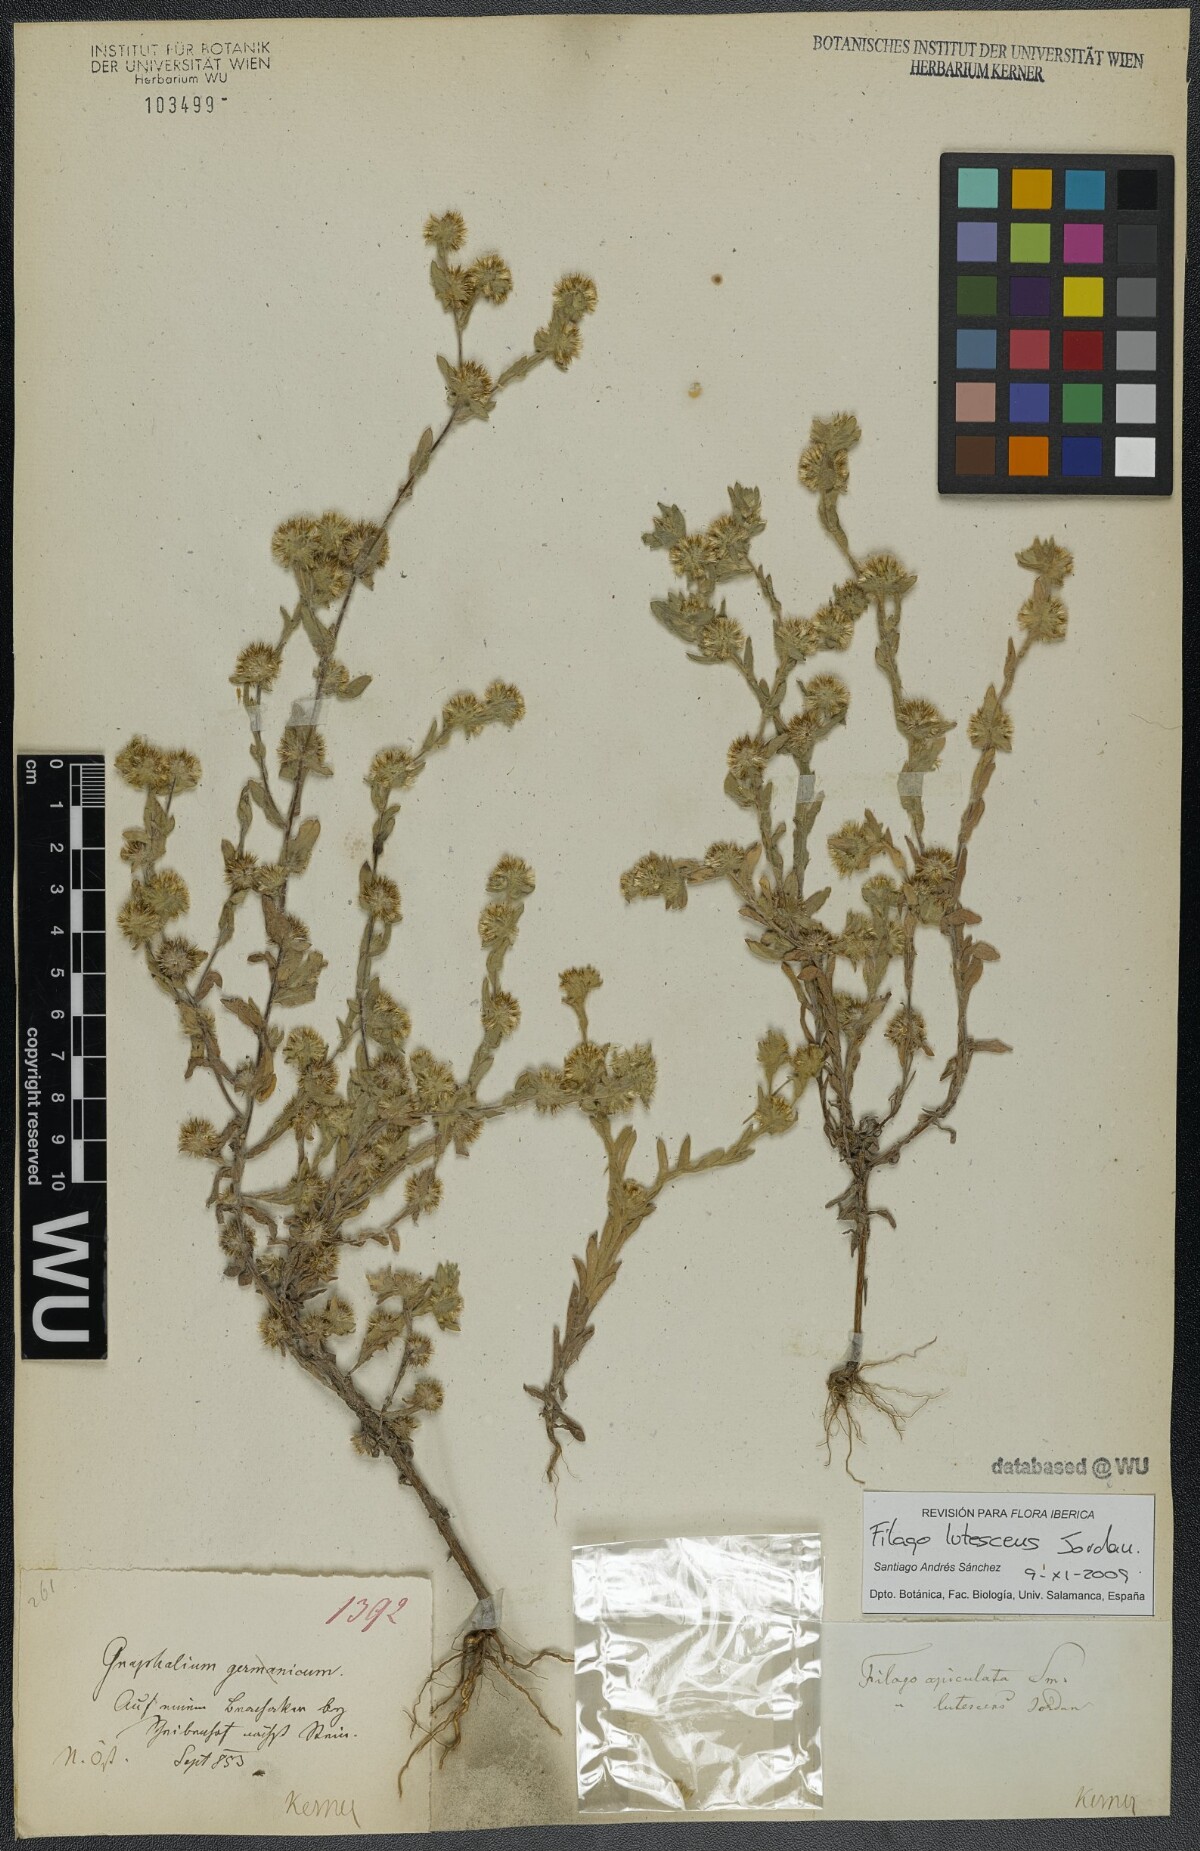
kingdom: Plantae
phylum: Tracheophyta
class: Magnoliopsida
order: Asterales
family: Asteraceae
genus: Filago
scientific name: Filago lutescens
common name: Red-tipped cudweed
